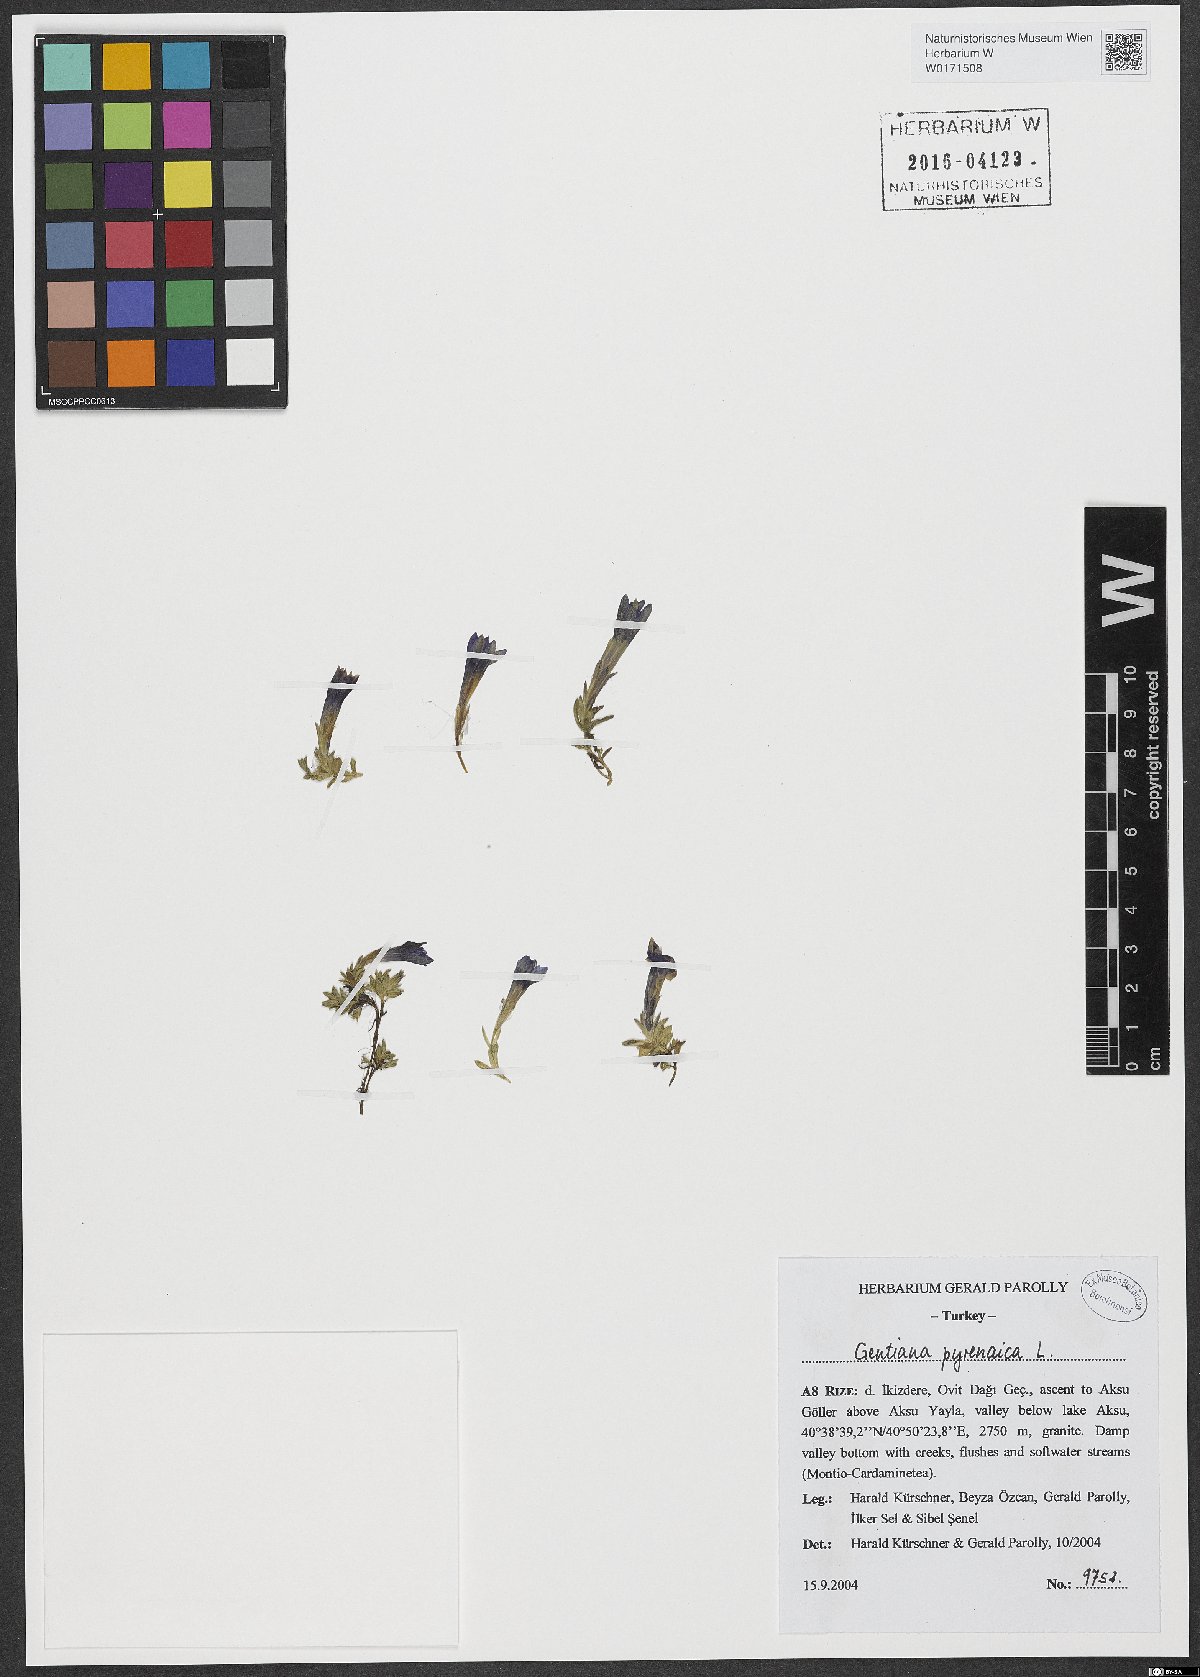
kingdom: Plantae
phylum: Tracheophyta
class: Magnoliopsida
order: Gentianales
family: Gentianaceae
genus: Gentiana
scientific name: Gentiana pyrenaica
